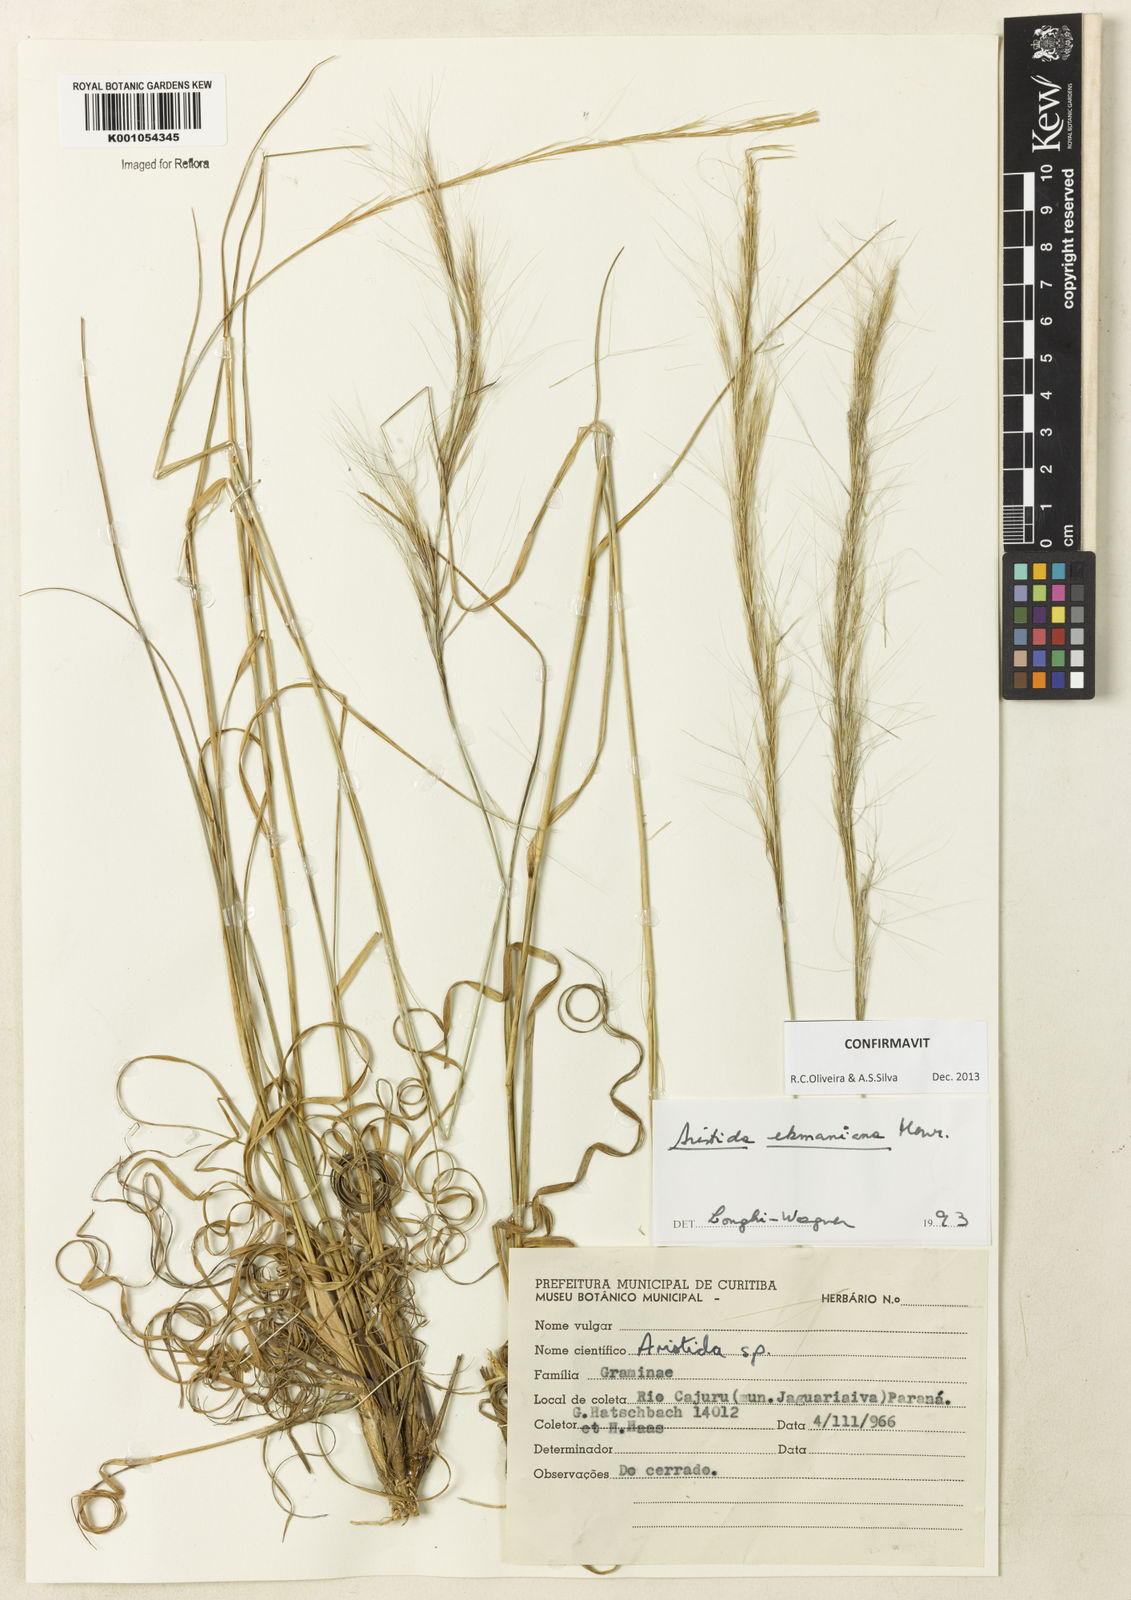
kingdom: Plantae
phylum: Tracheophyta
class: Liliopsida
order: Poales
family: Poaceae
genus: Aristida
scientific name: Aristida ekmaniana
